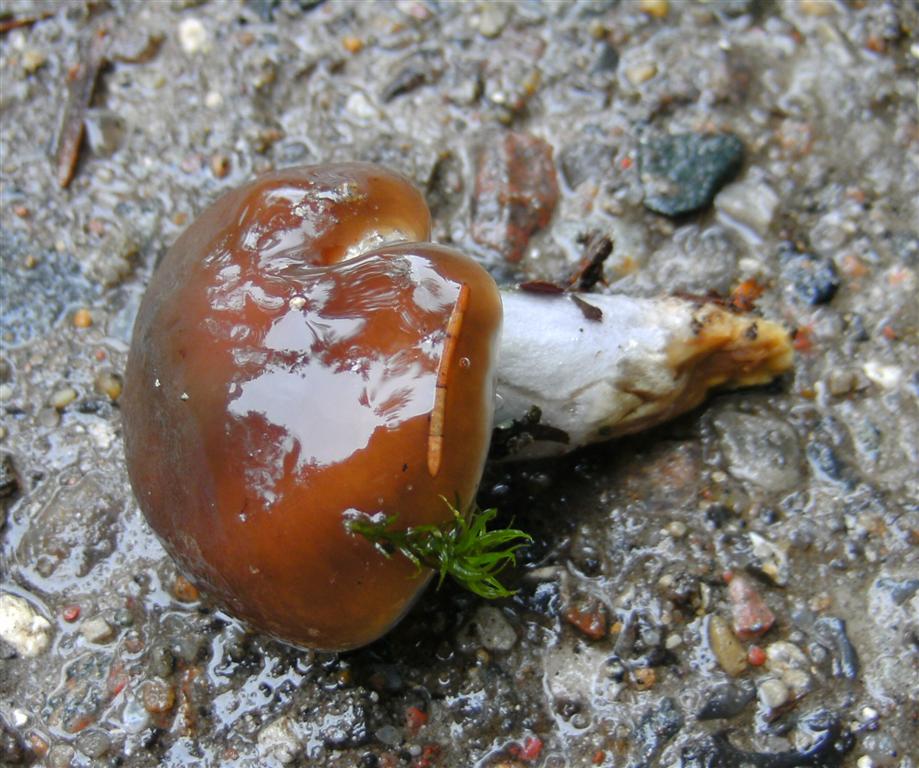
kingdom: Fungi
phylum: Basidiomycota
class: Agaricomycetes
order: Agaricales
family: Cortinariaceae
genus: Cortinarius
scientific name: Cortinarius elatior
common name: høj slørhat
